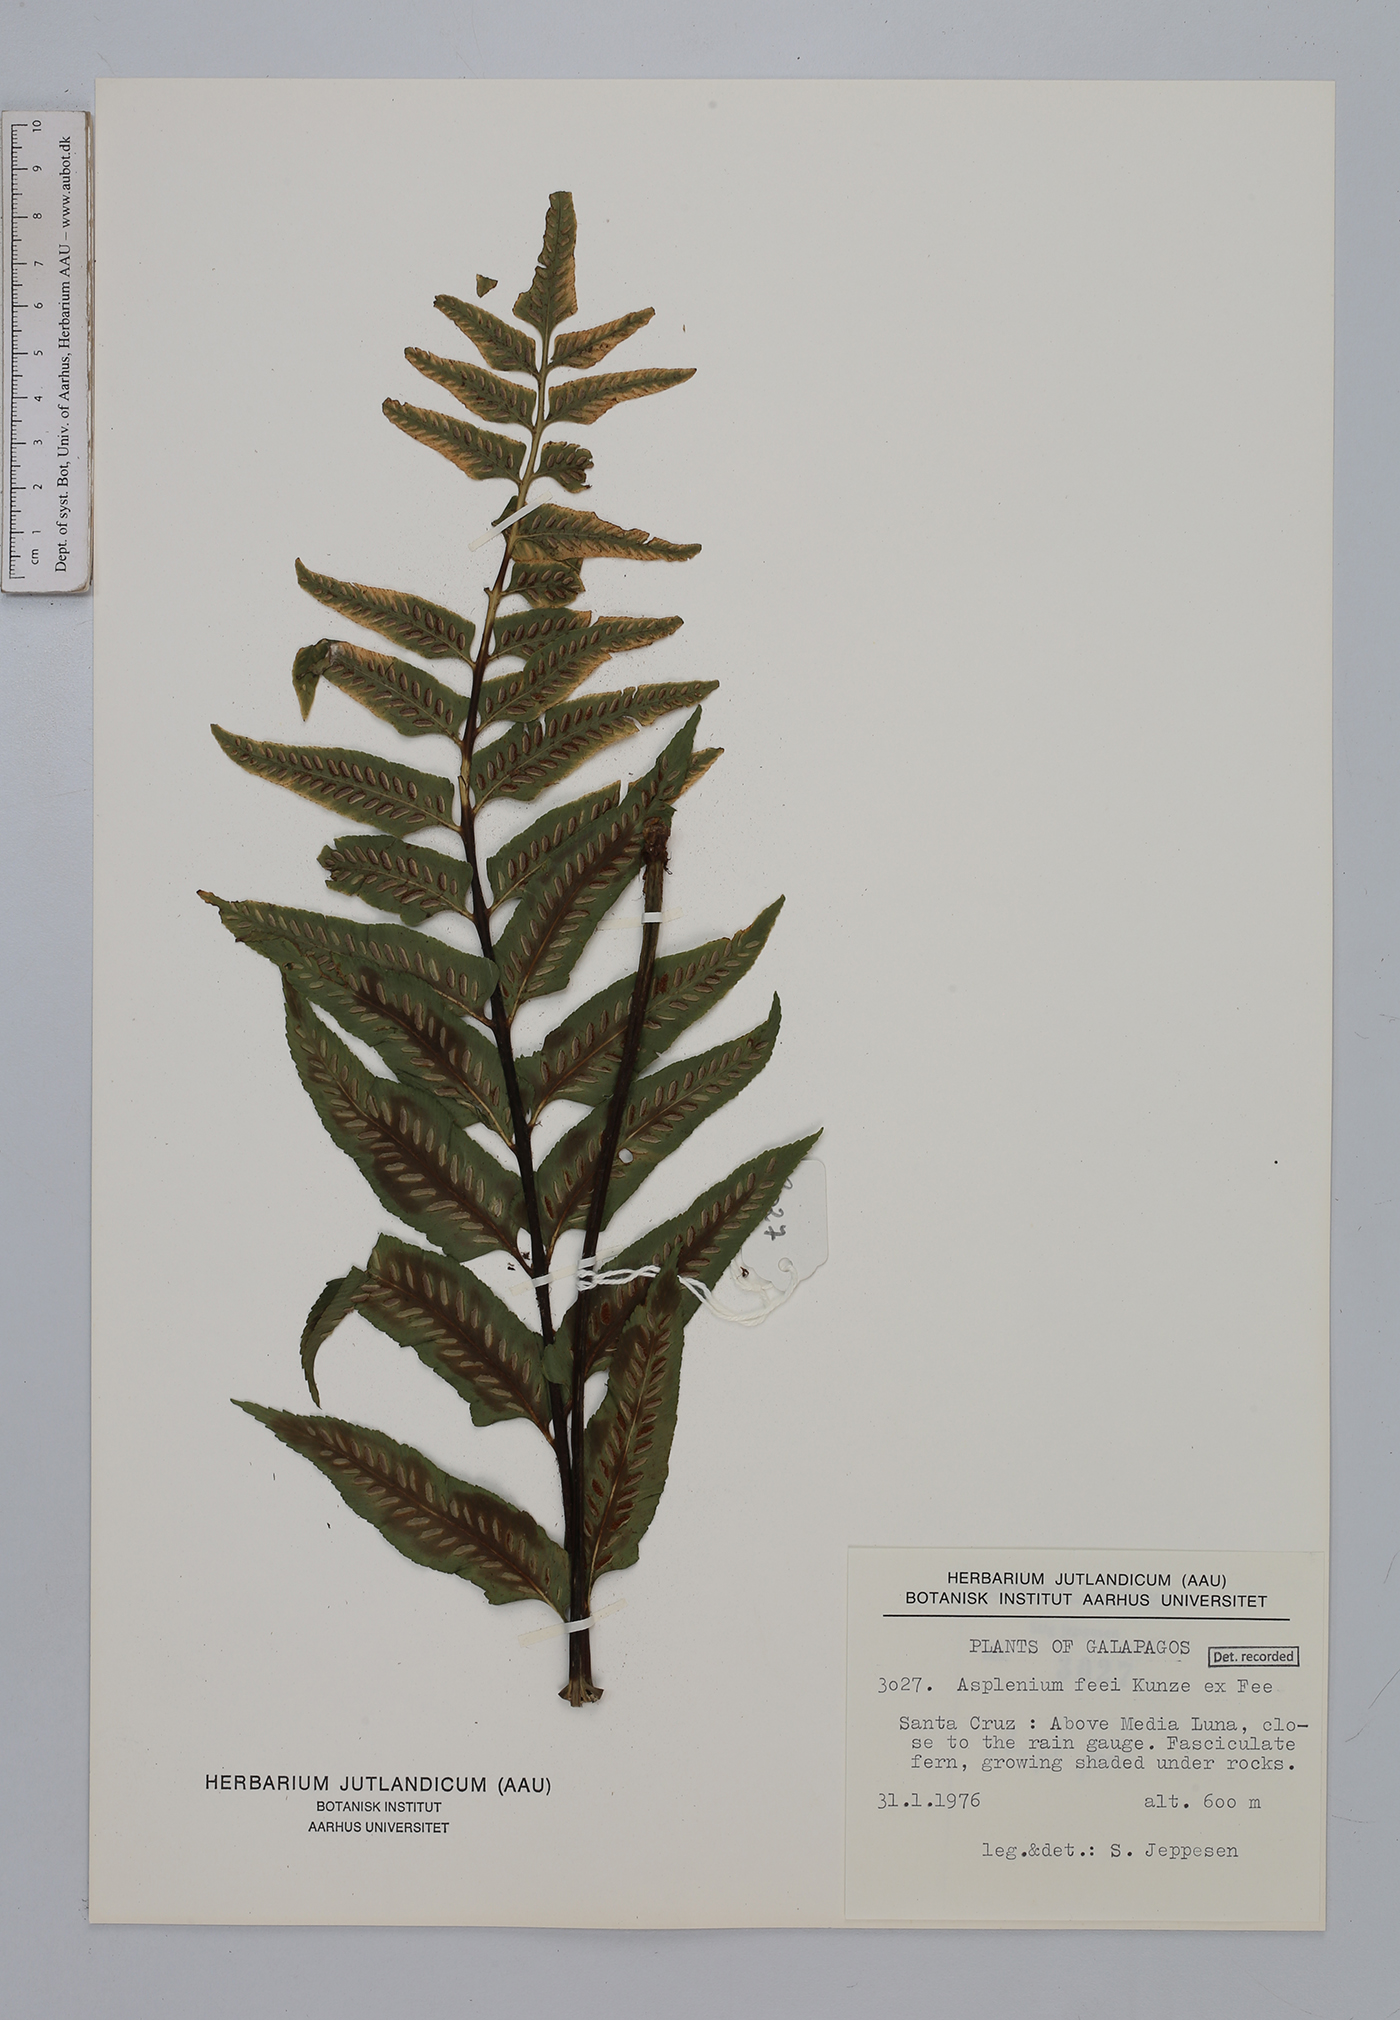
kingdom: Plantae
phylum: Tracheophyta
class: Polypodiopsida
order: Polypodiales
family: Aspleniaceae
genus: Asplenium
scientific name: Asplenium feei
